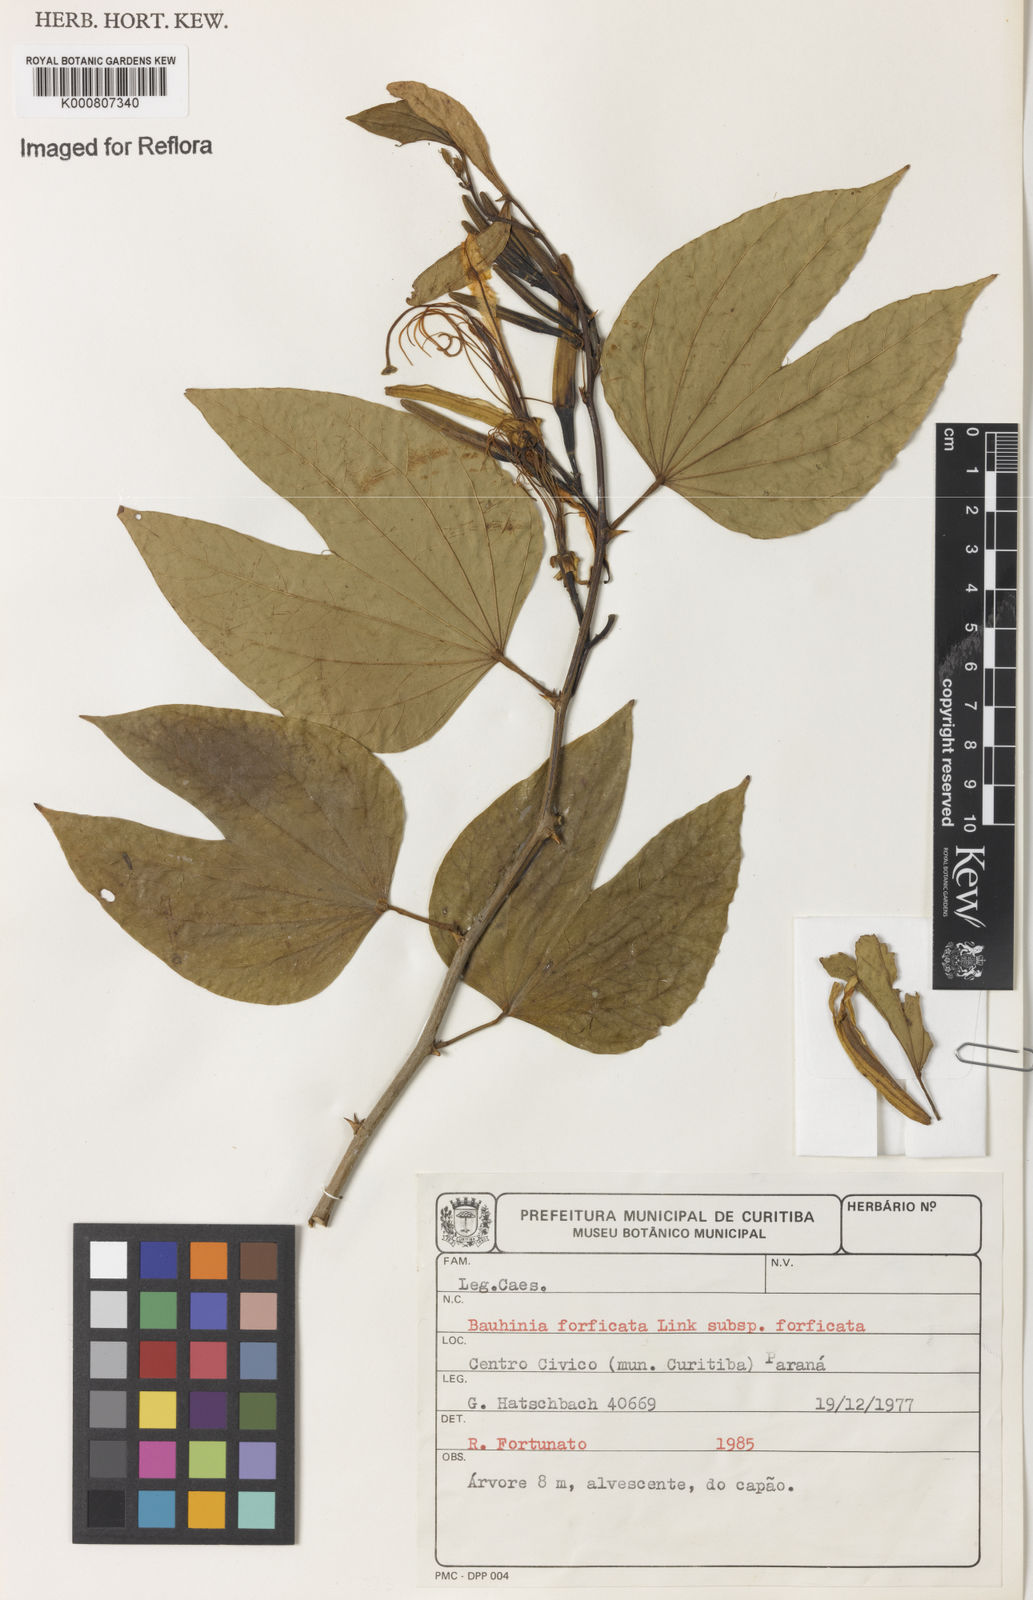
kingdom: Plantae
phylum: Tracheophyta
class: Magnoliopsida
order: Fabales
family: Fabaceae
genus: Bauhinia
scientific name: Bauhinia forficata
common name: Orchid tree
